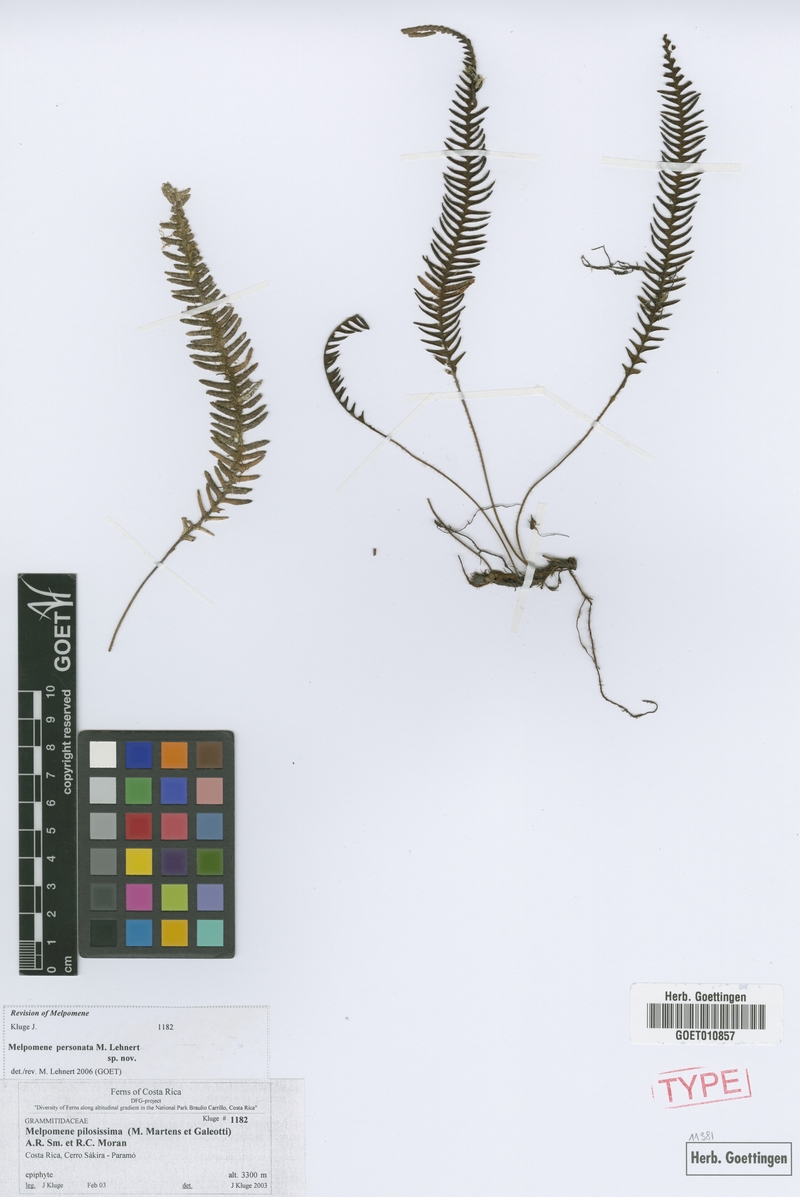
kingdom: Plantae
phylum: Tracheophyta
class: Polypodiopsida
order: Polypodiales
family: Polypodiaceae
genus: Melpomene
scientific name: Melpomene personata
